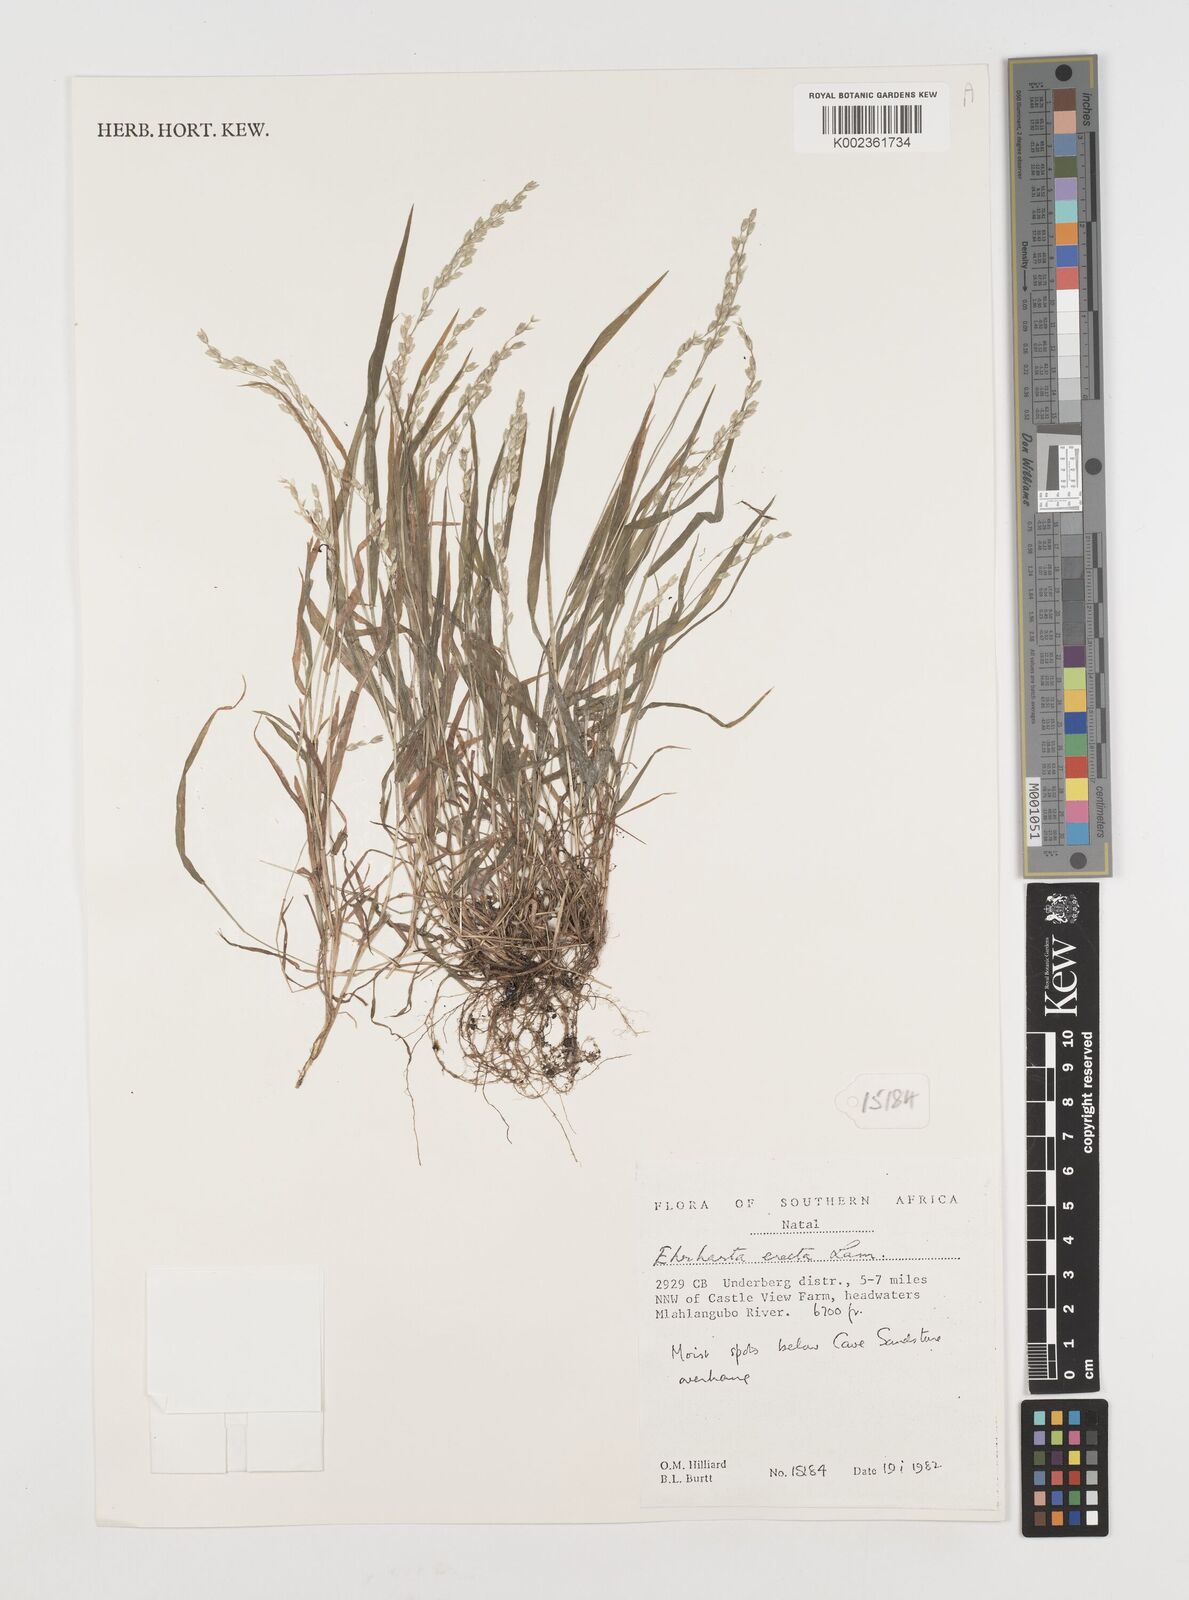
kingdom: Plantae
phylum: Tracheophyta
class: Liliopsida
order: Poales
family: Poaceae
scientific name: Poaceae
